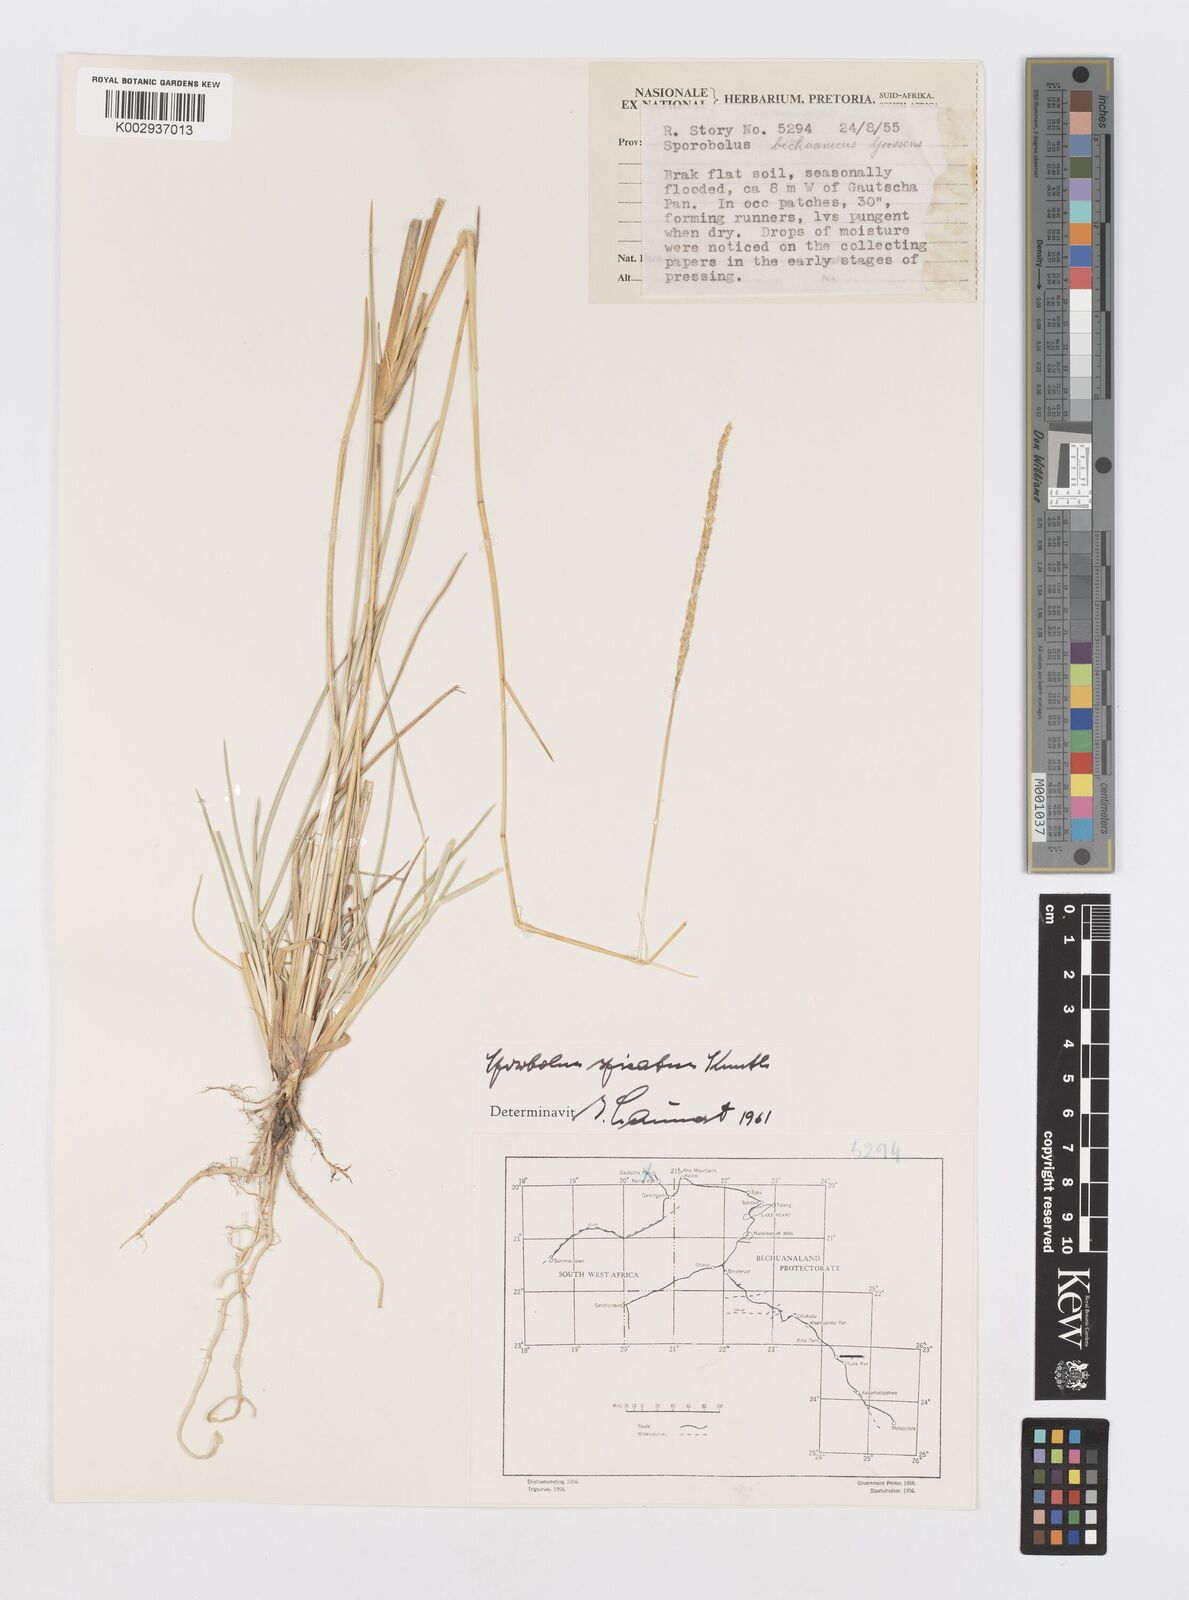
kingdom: Plantae
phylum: Tracheophyta
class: Liliopsida
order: Poales
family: Poaceae
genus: Sporobolus
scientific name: Sporobolus spicatus
